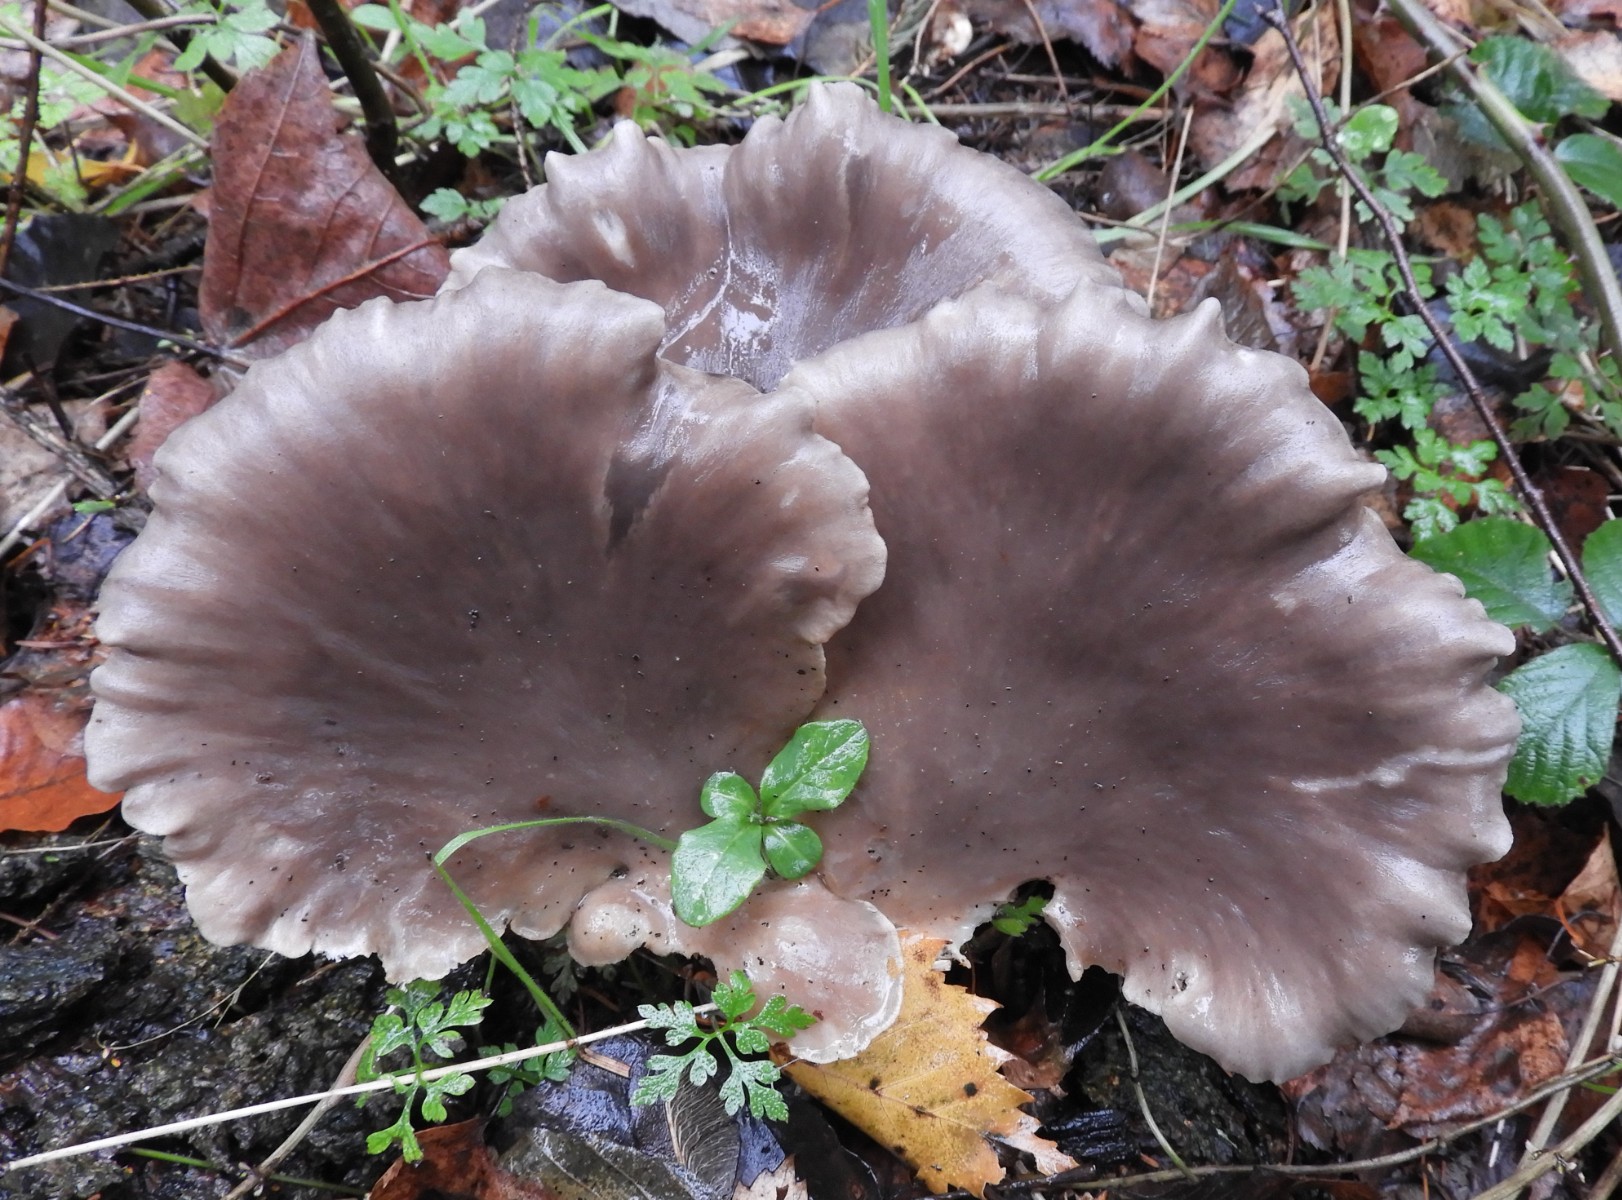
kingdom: Fungi
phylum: Basidiomycota
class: Agaricomycetes
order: Agaricales
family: Pleurotaceae
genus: Pleurotus
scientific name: Pleurotus ostreatus
